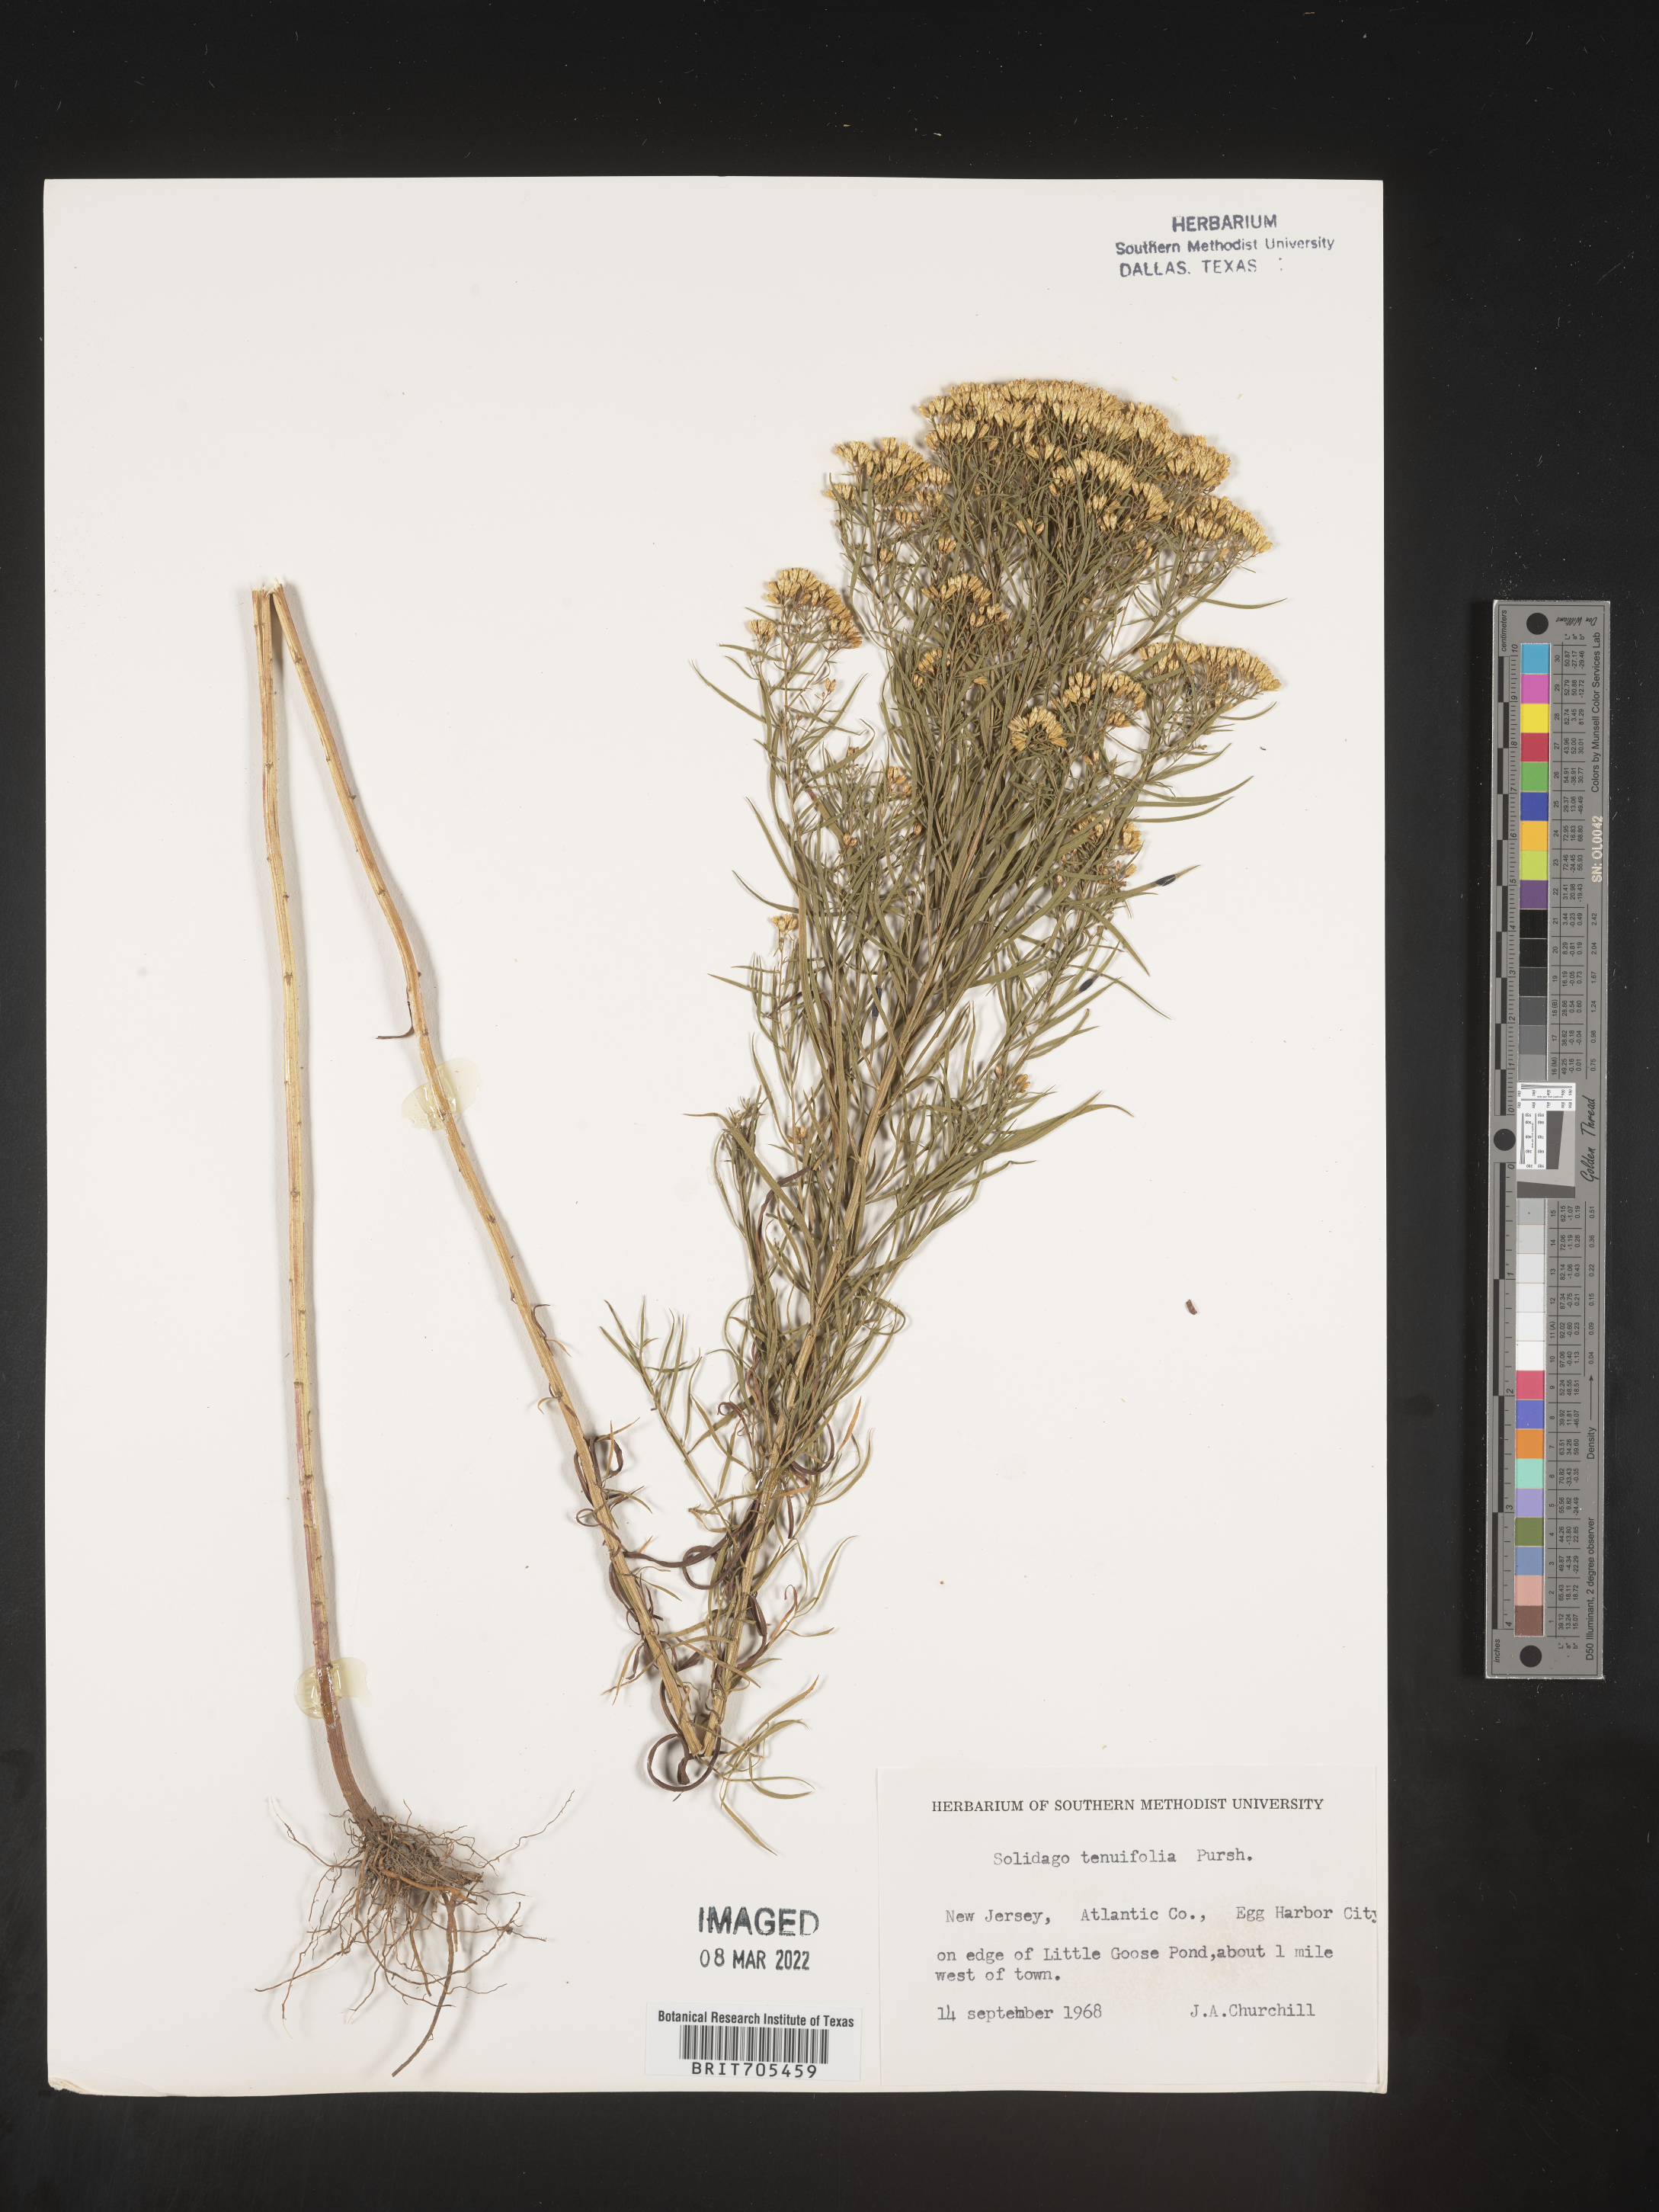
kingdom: Plantae
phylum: Tracheophyta
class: Magnoliopsida
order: Asterales
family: Asteraceae
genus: Euthamia
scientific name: Euthamia caroliniana
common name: Coastal plain goldentop
